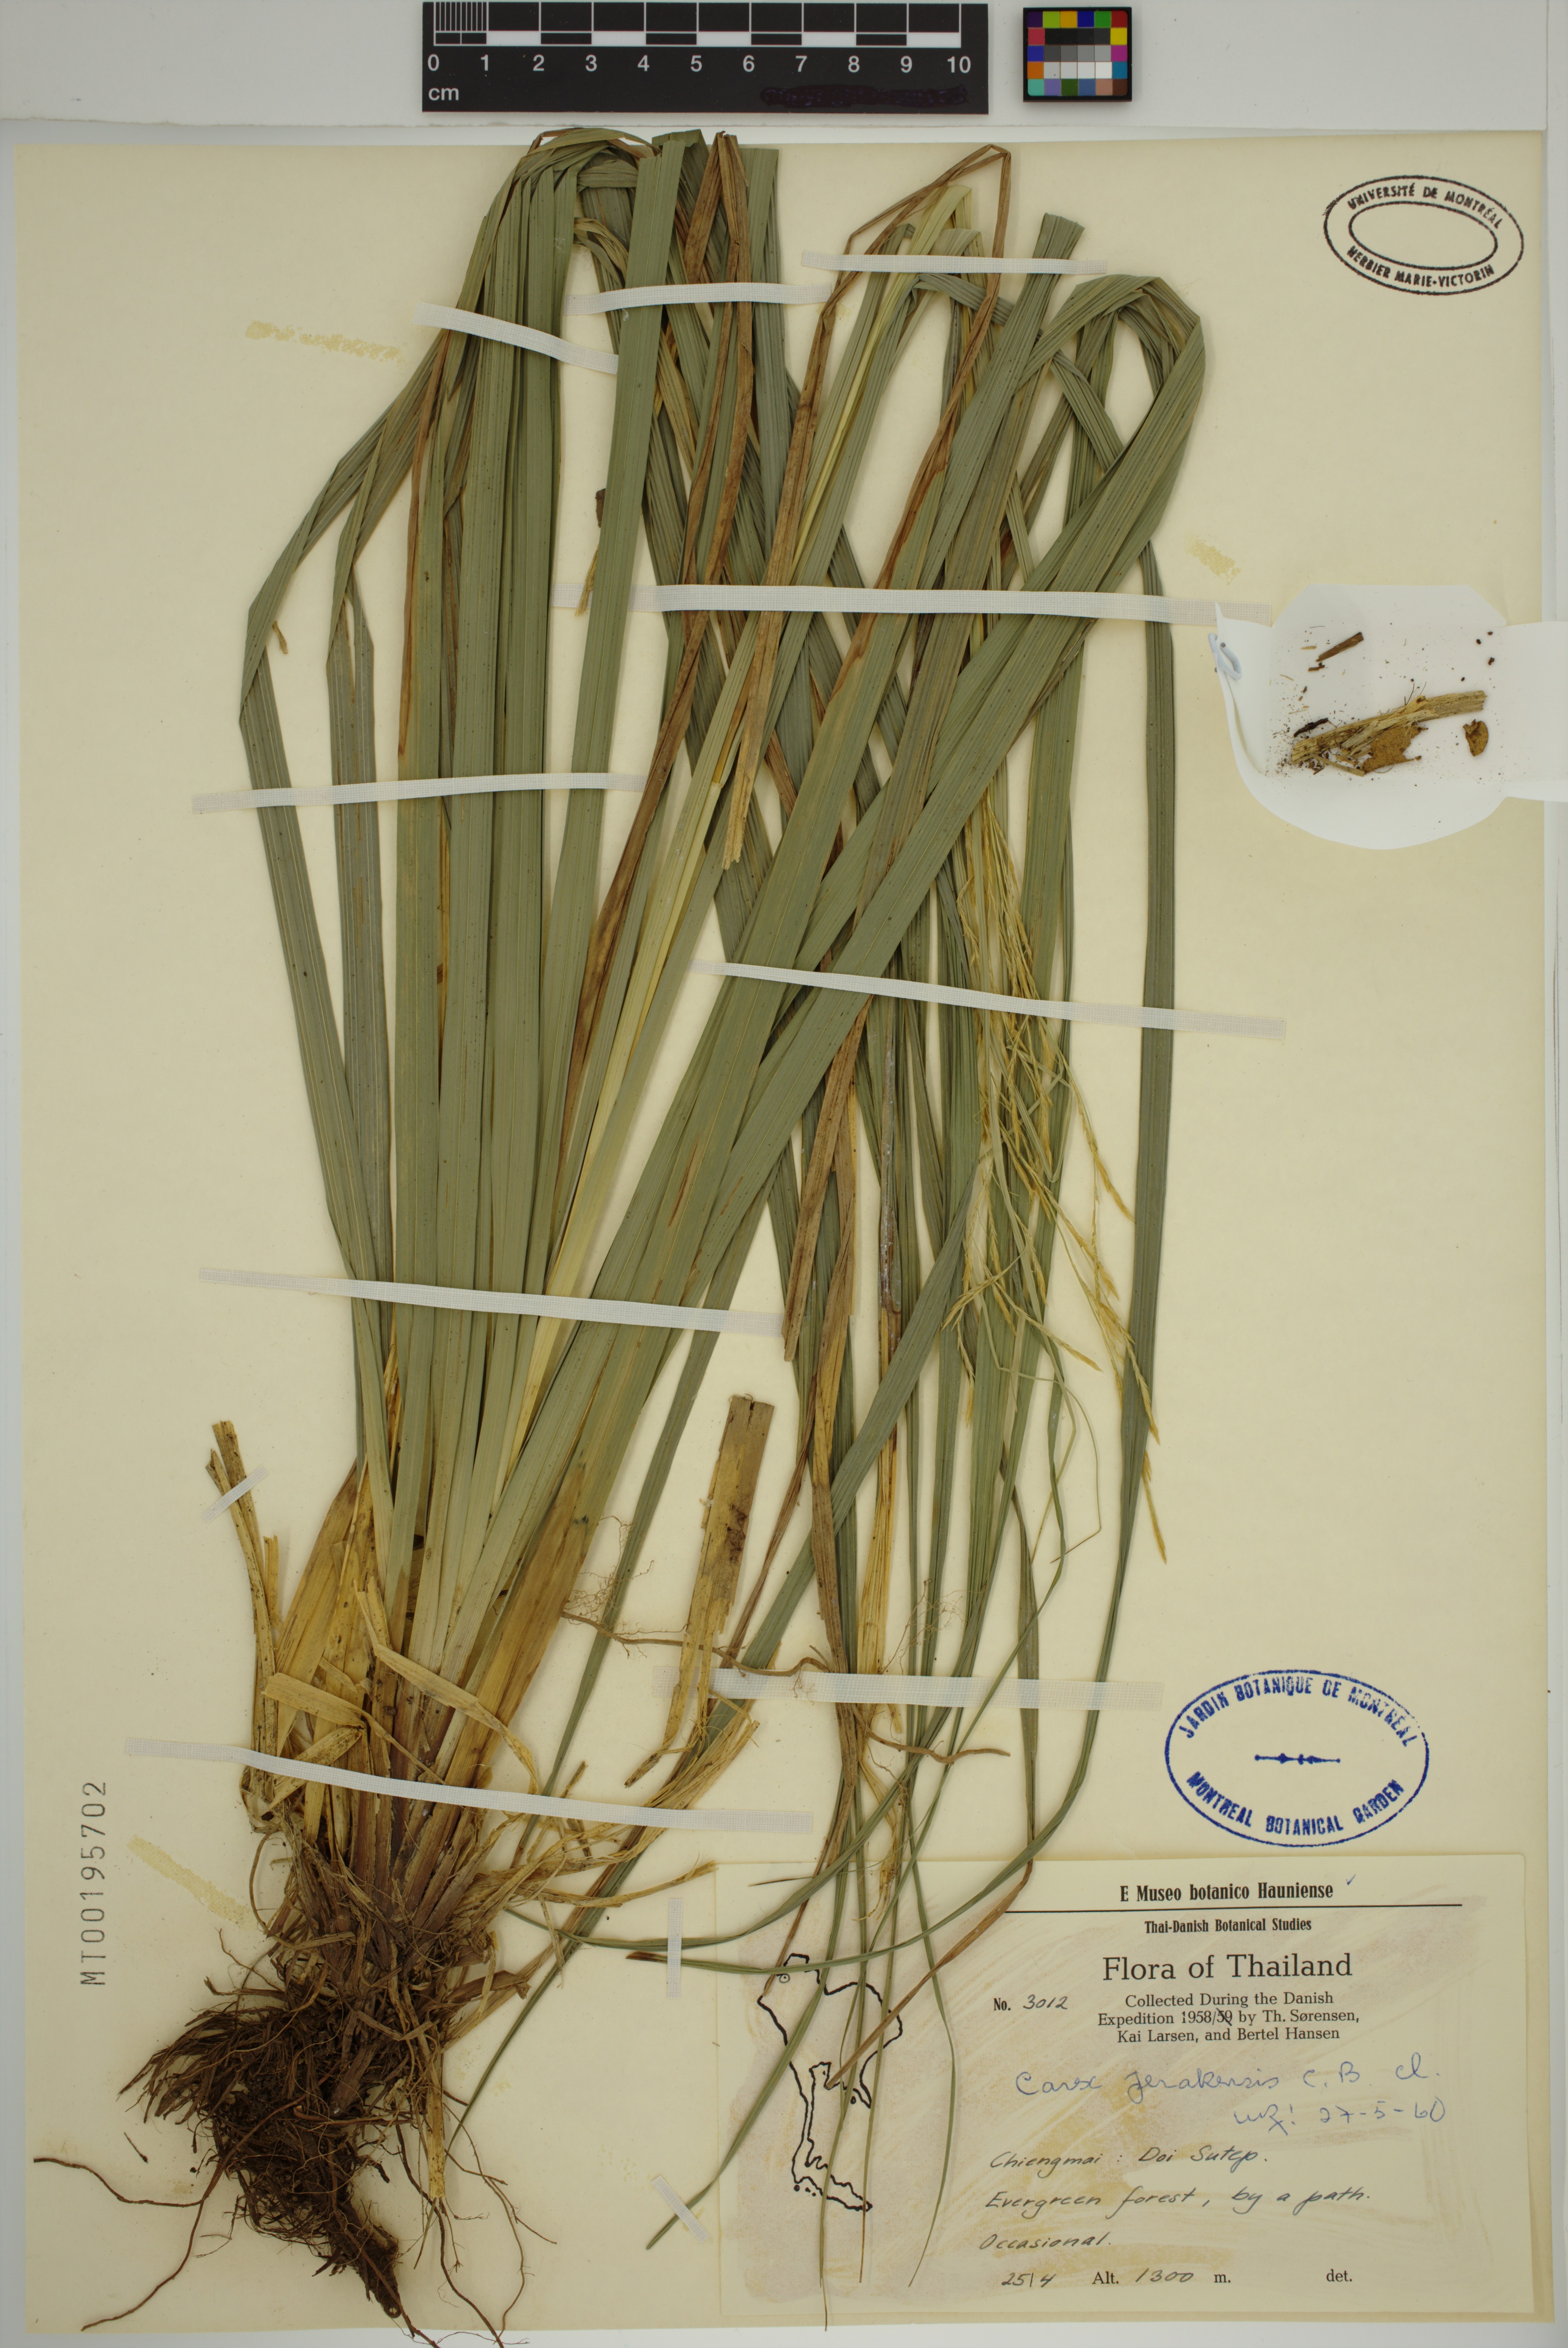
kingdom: Plantae
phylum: Tracheophyta
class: Liliopsida
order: Poales
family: Cyperaceae
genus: Carex
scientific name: Carex perakensis
